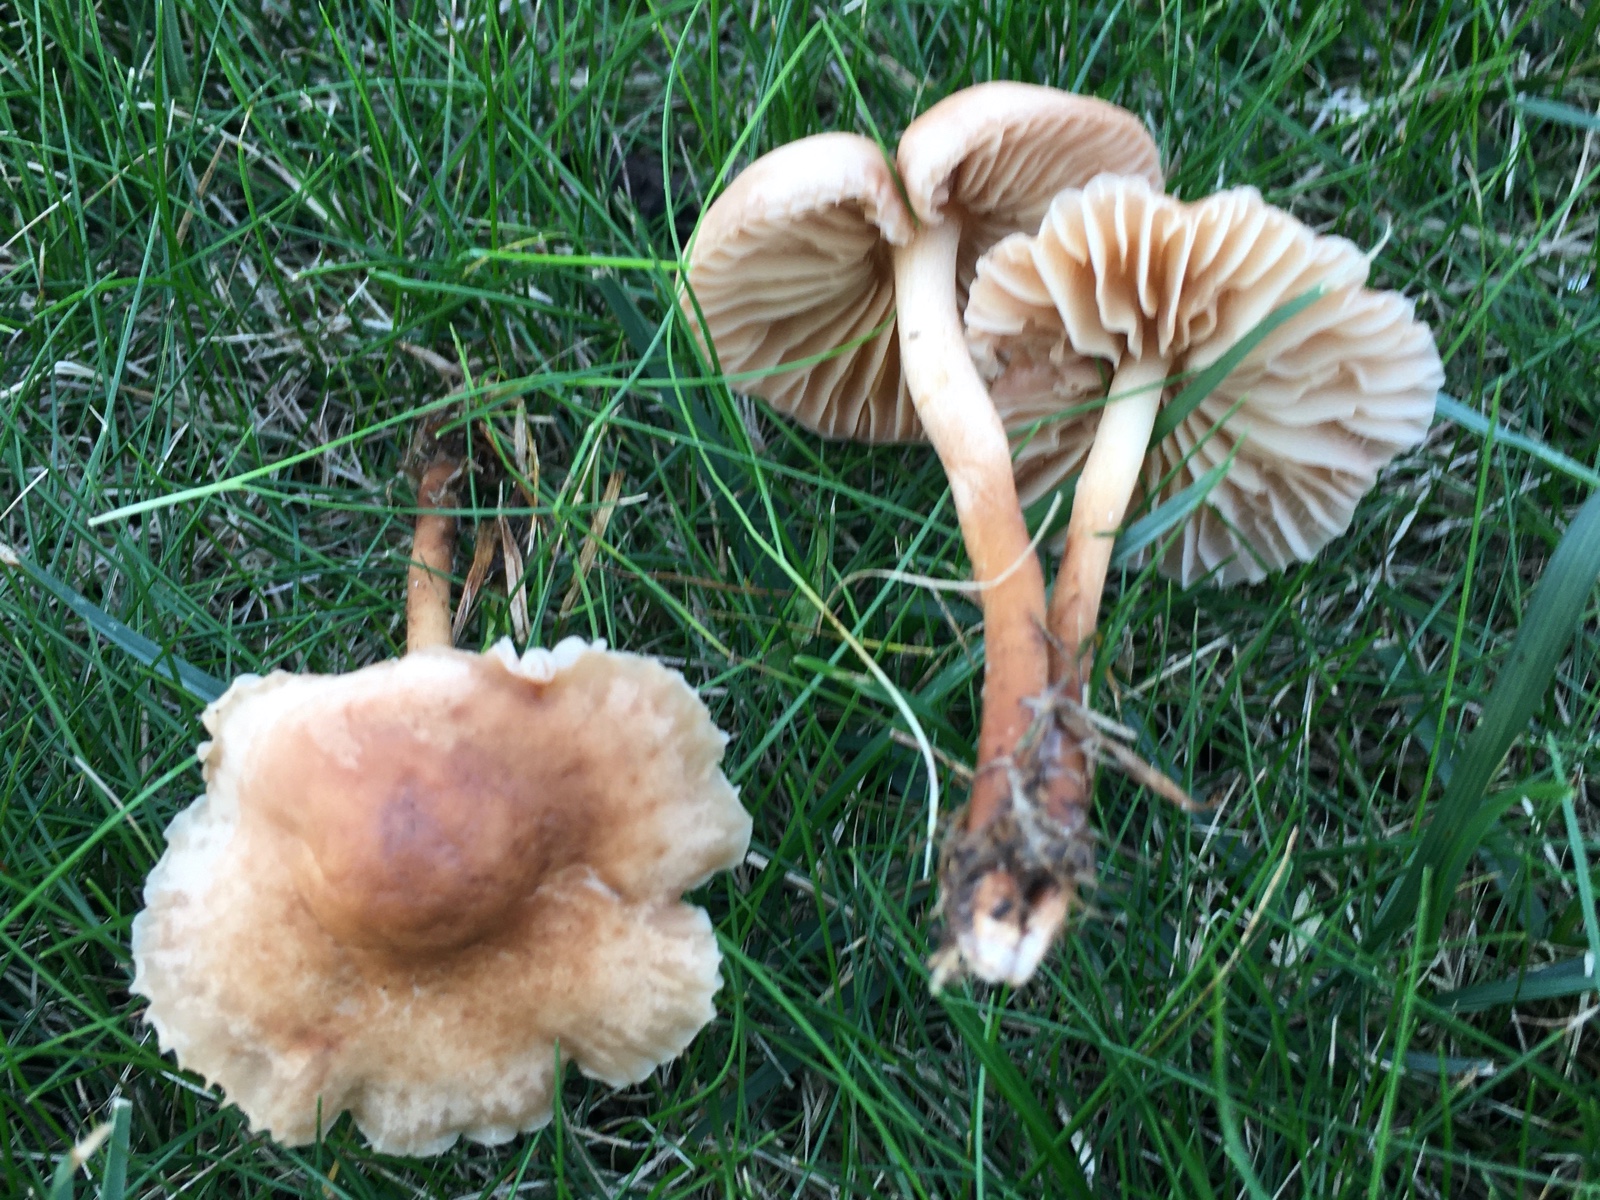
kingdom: Fungi
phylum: Basidiomycota
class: Agaricomycetes
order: Agaricales
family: Marasmiaceae
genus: Marasmius
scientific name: Marasmius oreades
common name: elledans-bruskhat
